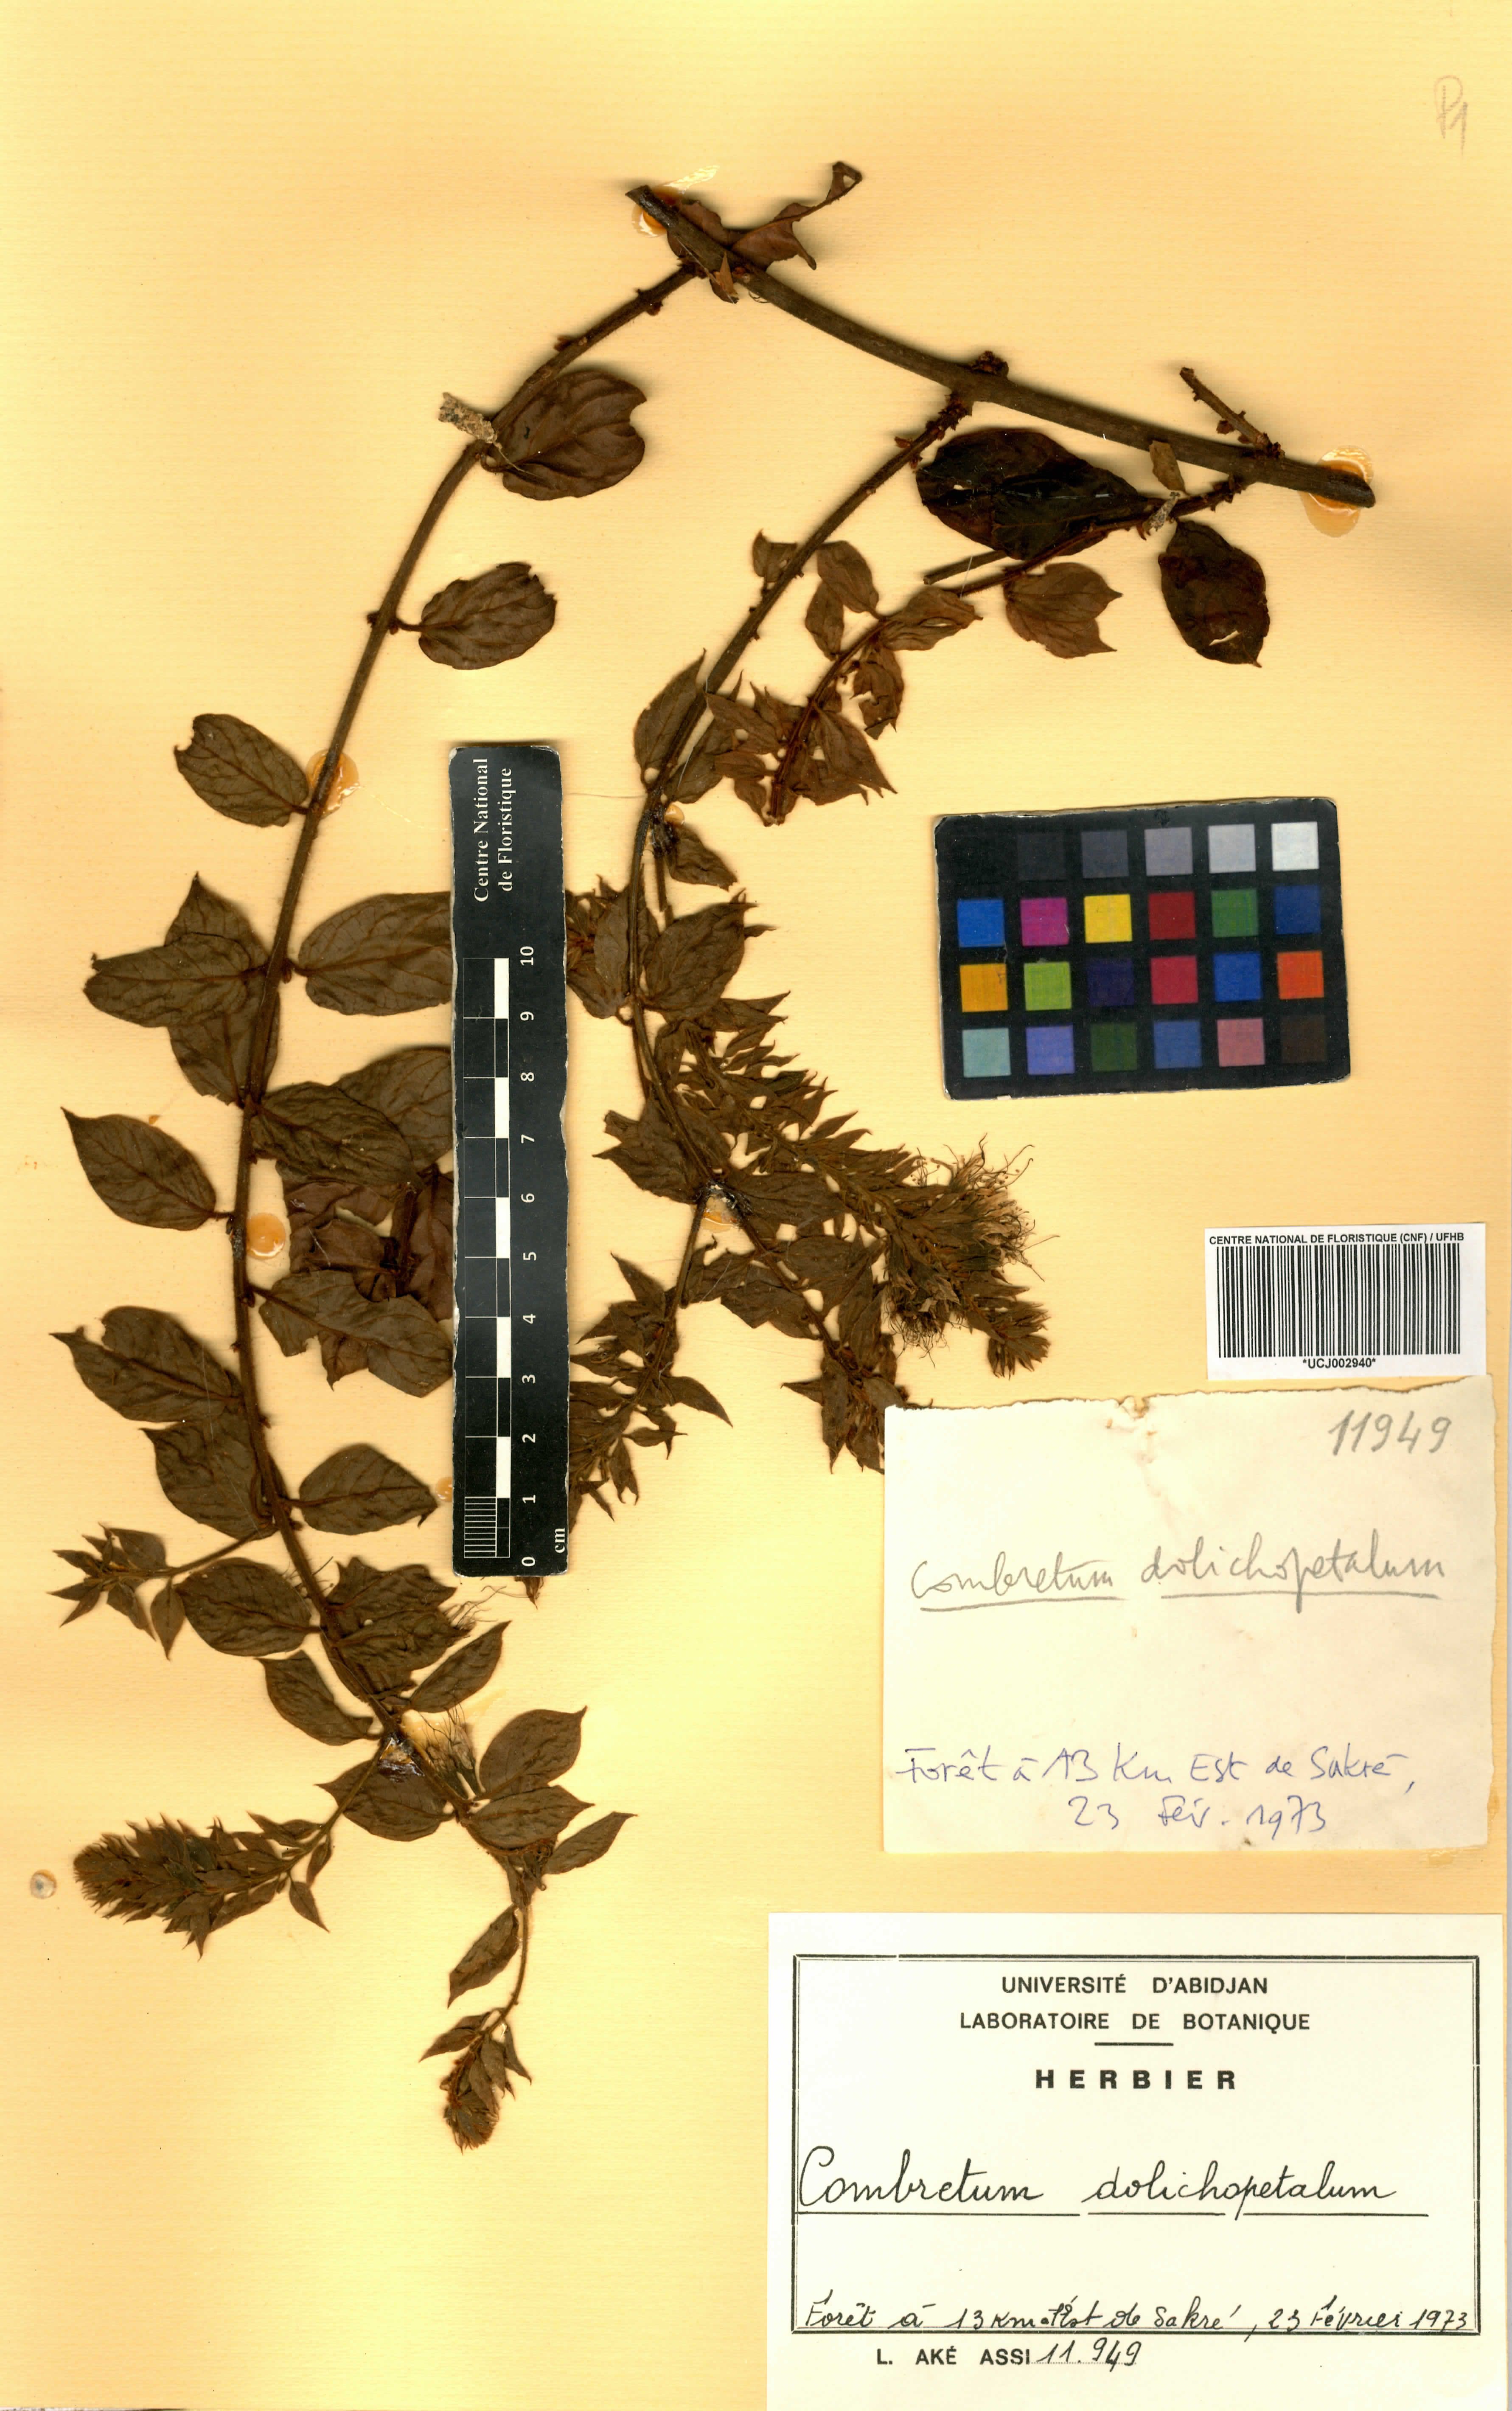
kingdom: Plantae
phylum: Tracheophyta
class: Magnoliopsida
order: Myrtales
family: Combretaceae
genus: Combretum
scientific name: Combretum comosum
